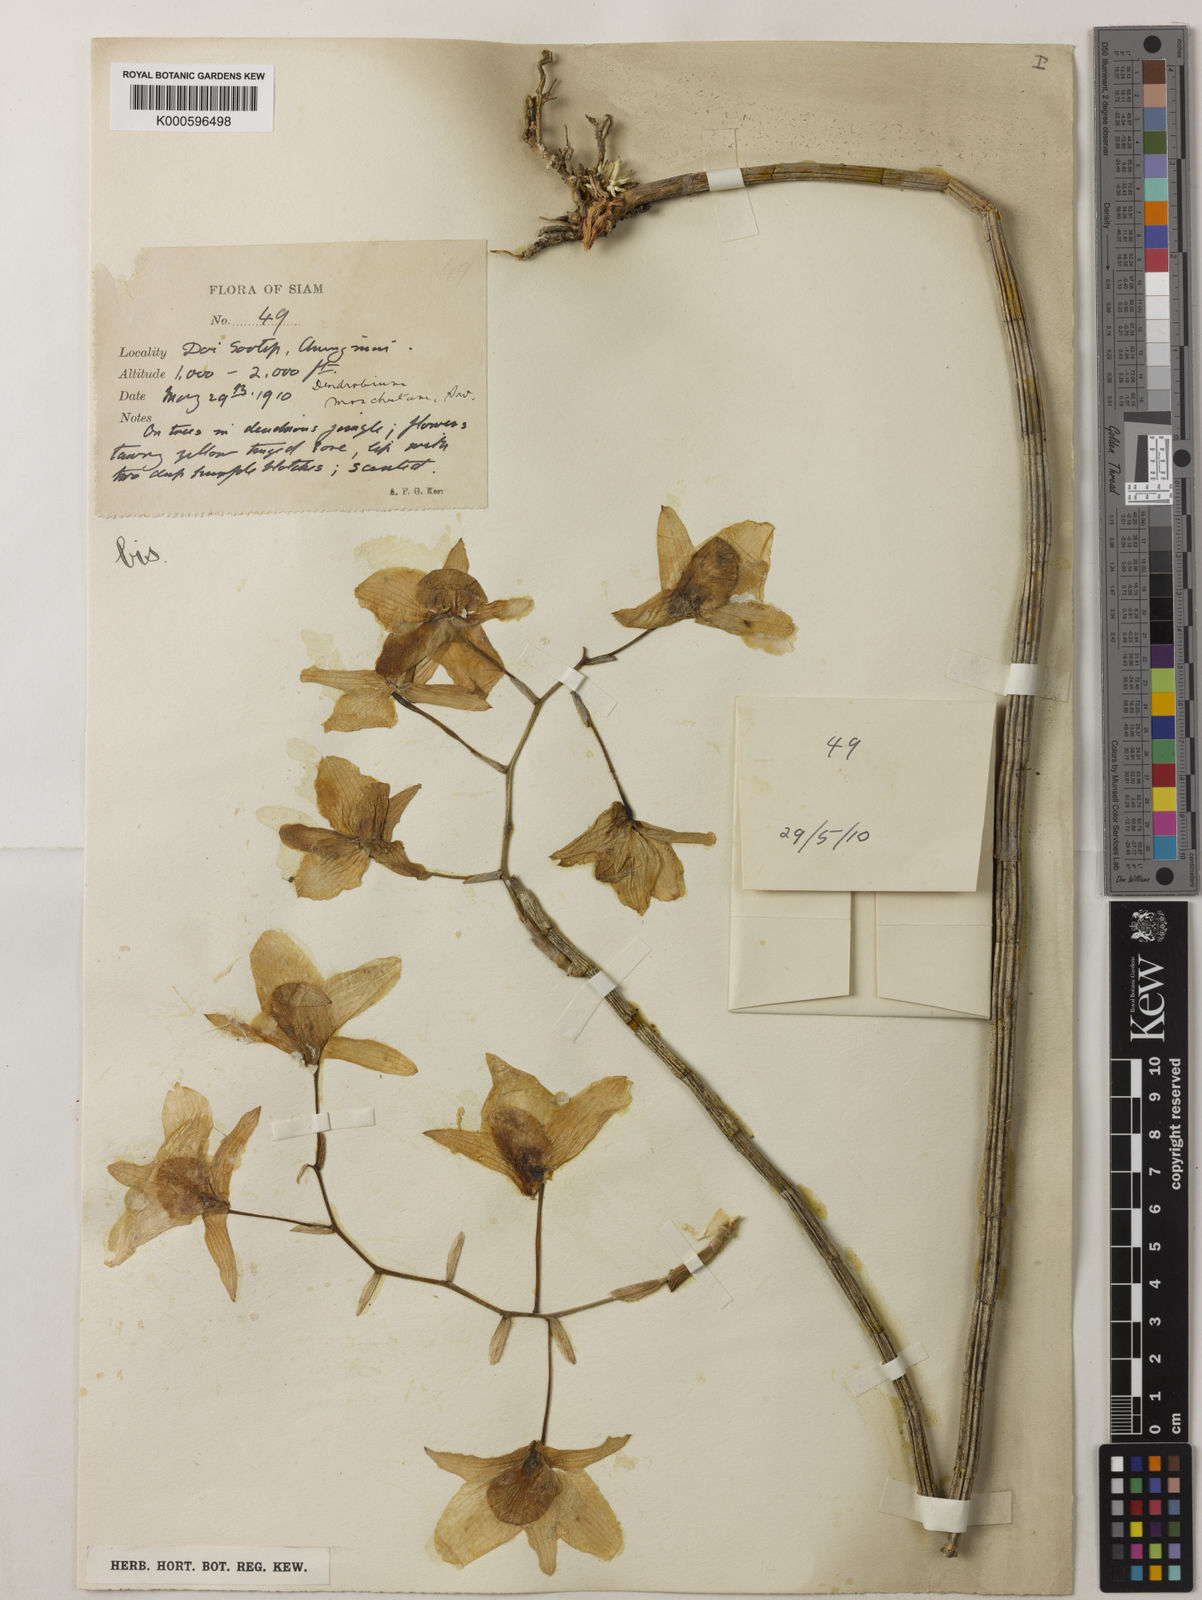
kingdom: Plantae
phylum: Tracheophyta
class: Liliopsida
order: Asparagales
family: Orchidaceae
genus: Dendrobium
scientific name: Dendrobium moschatum
